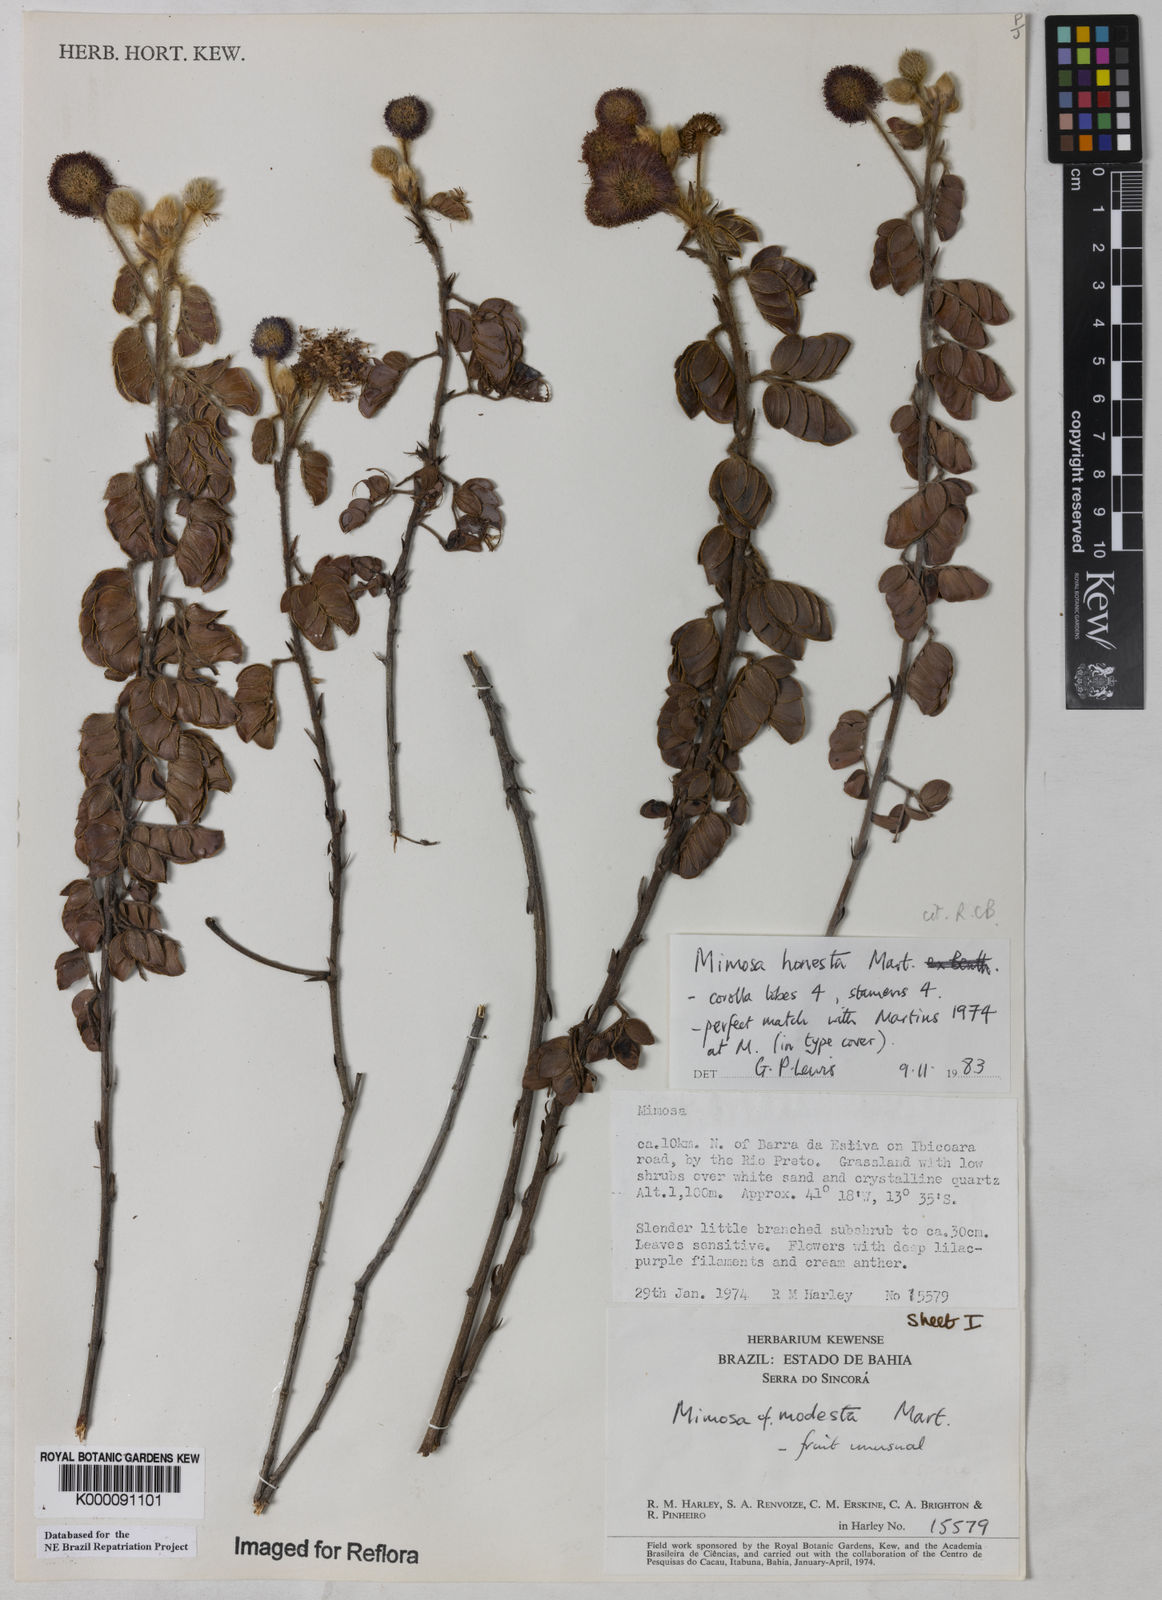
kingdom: Plantae
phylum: Tracheophyta
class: Magnoliopsida
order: Fabales
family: Fabaceae
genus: Mimosa
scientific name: Mimosa honesta
